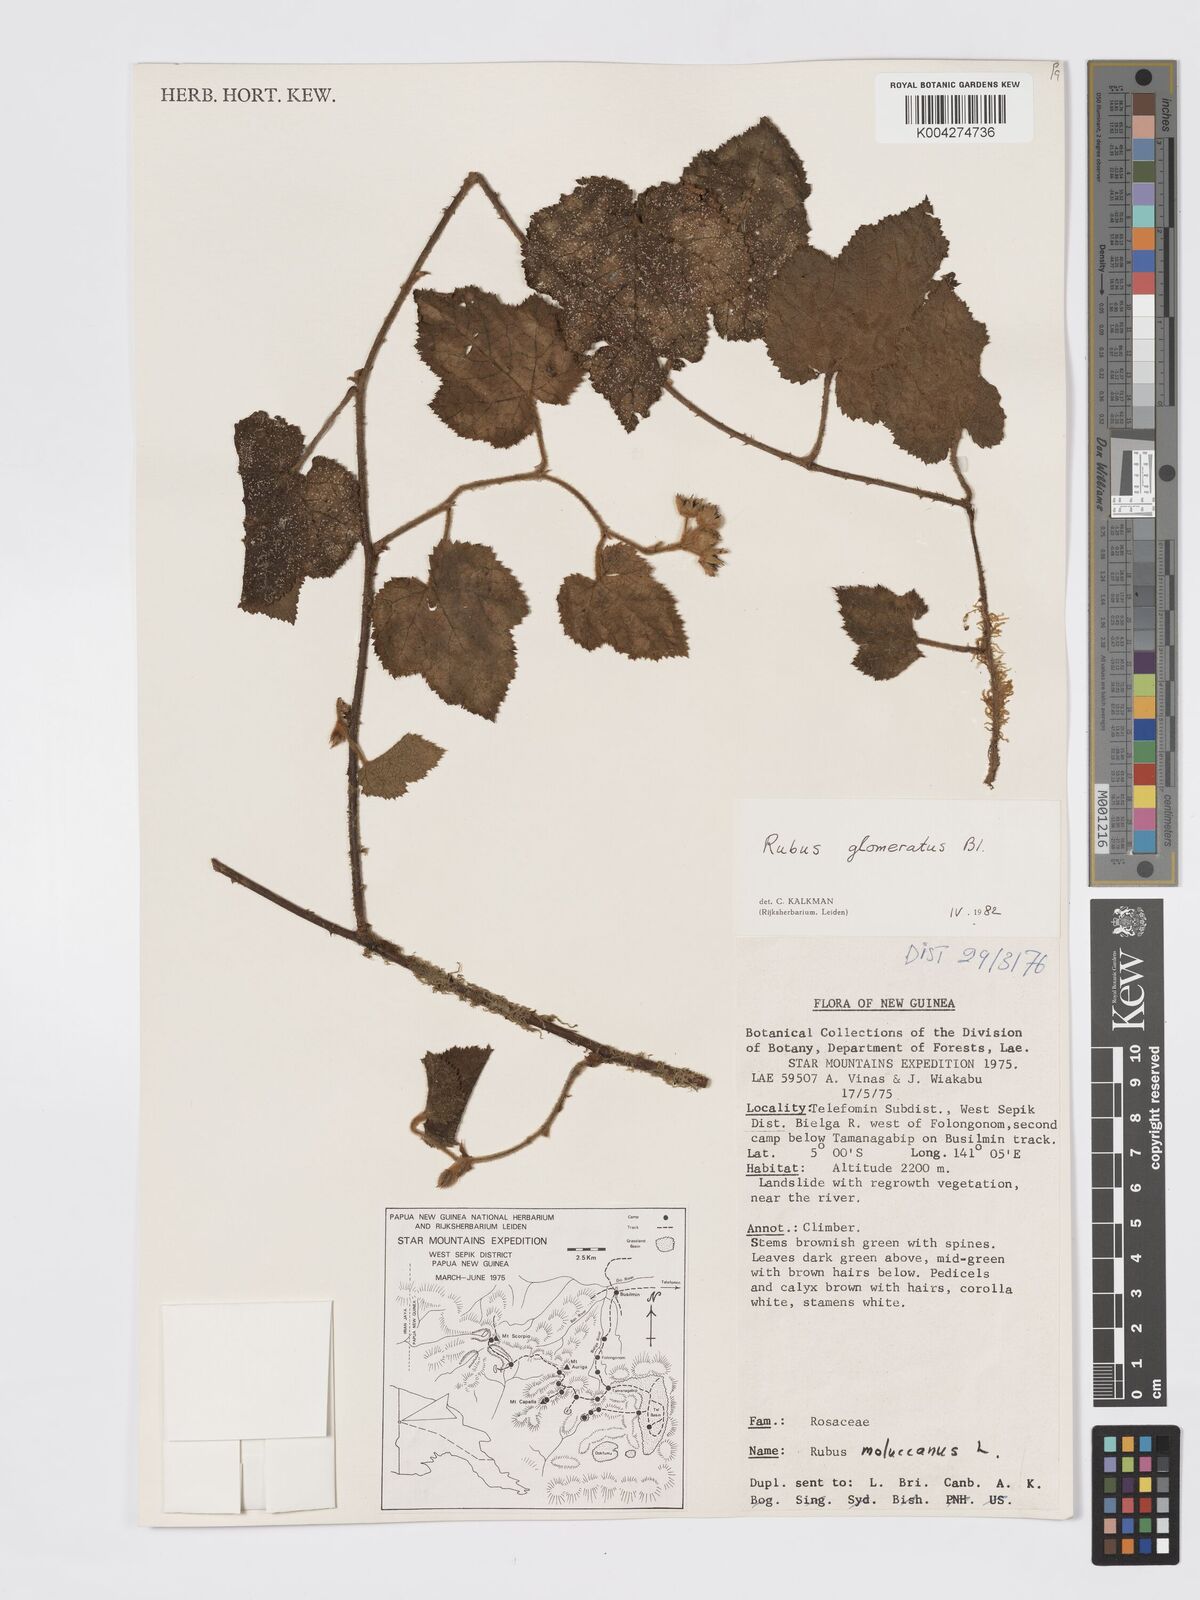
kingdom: Plantae
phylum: Tracheophyta
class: Magnoliopsida
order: Rosales
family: Rosaceae
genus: Rubus
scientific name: Rubus
